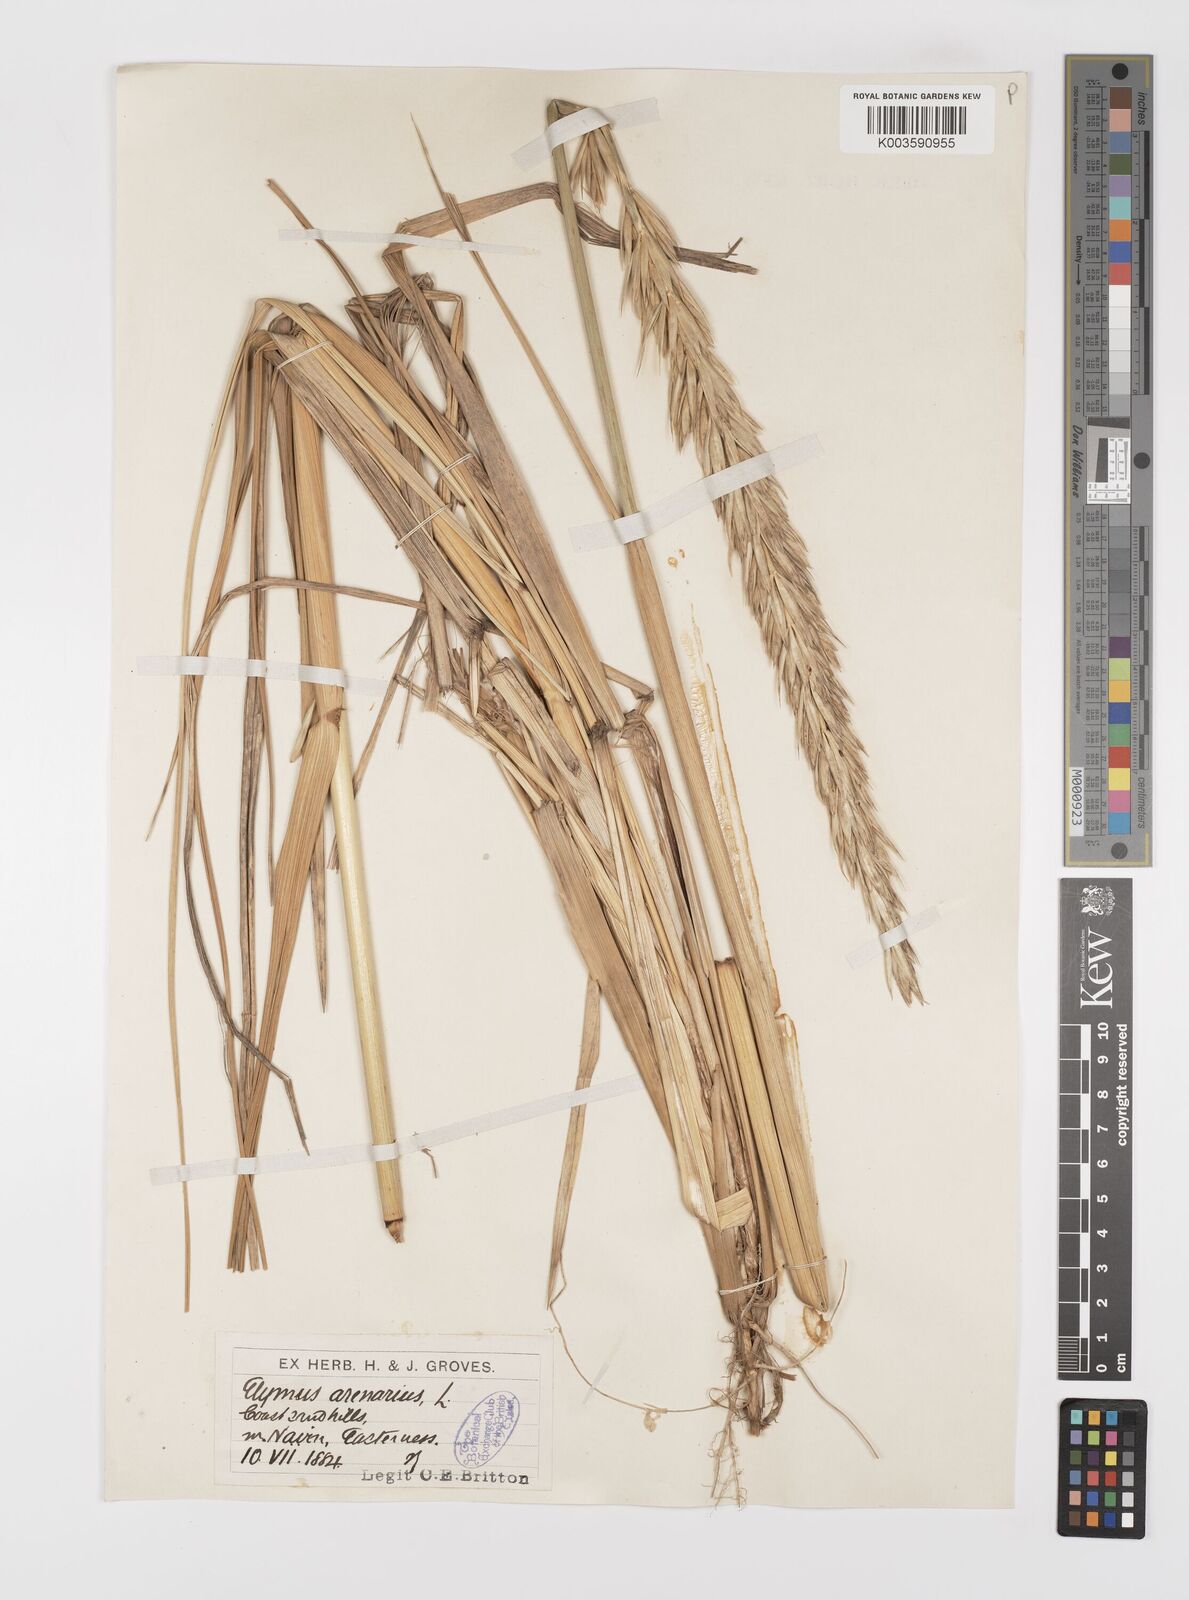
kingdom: Plantae
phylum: Tracheophyta
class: Liliopsida
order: Poales
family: Poaceae
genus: Leymus
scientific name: Leymus arenarius
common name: Lyme-grass
